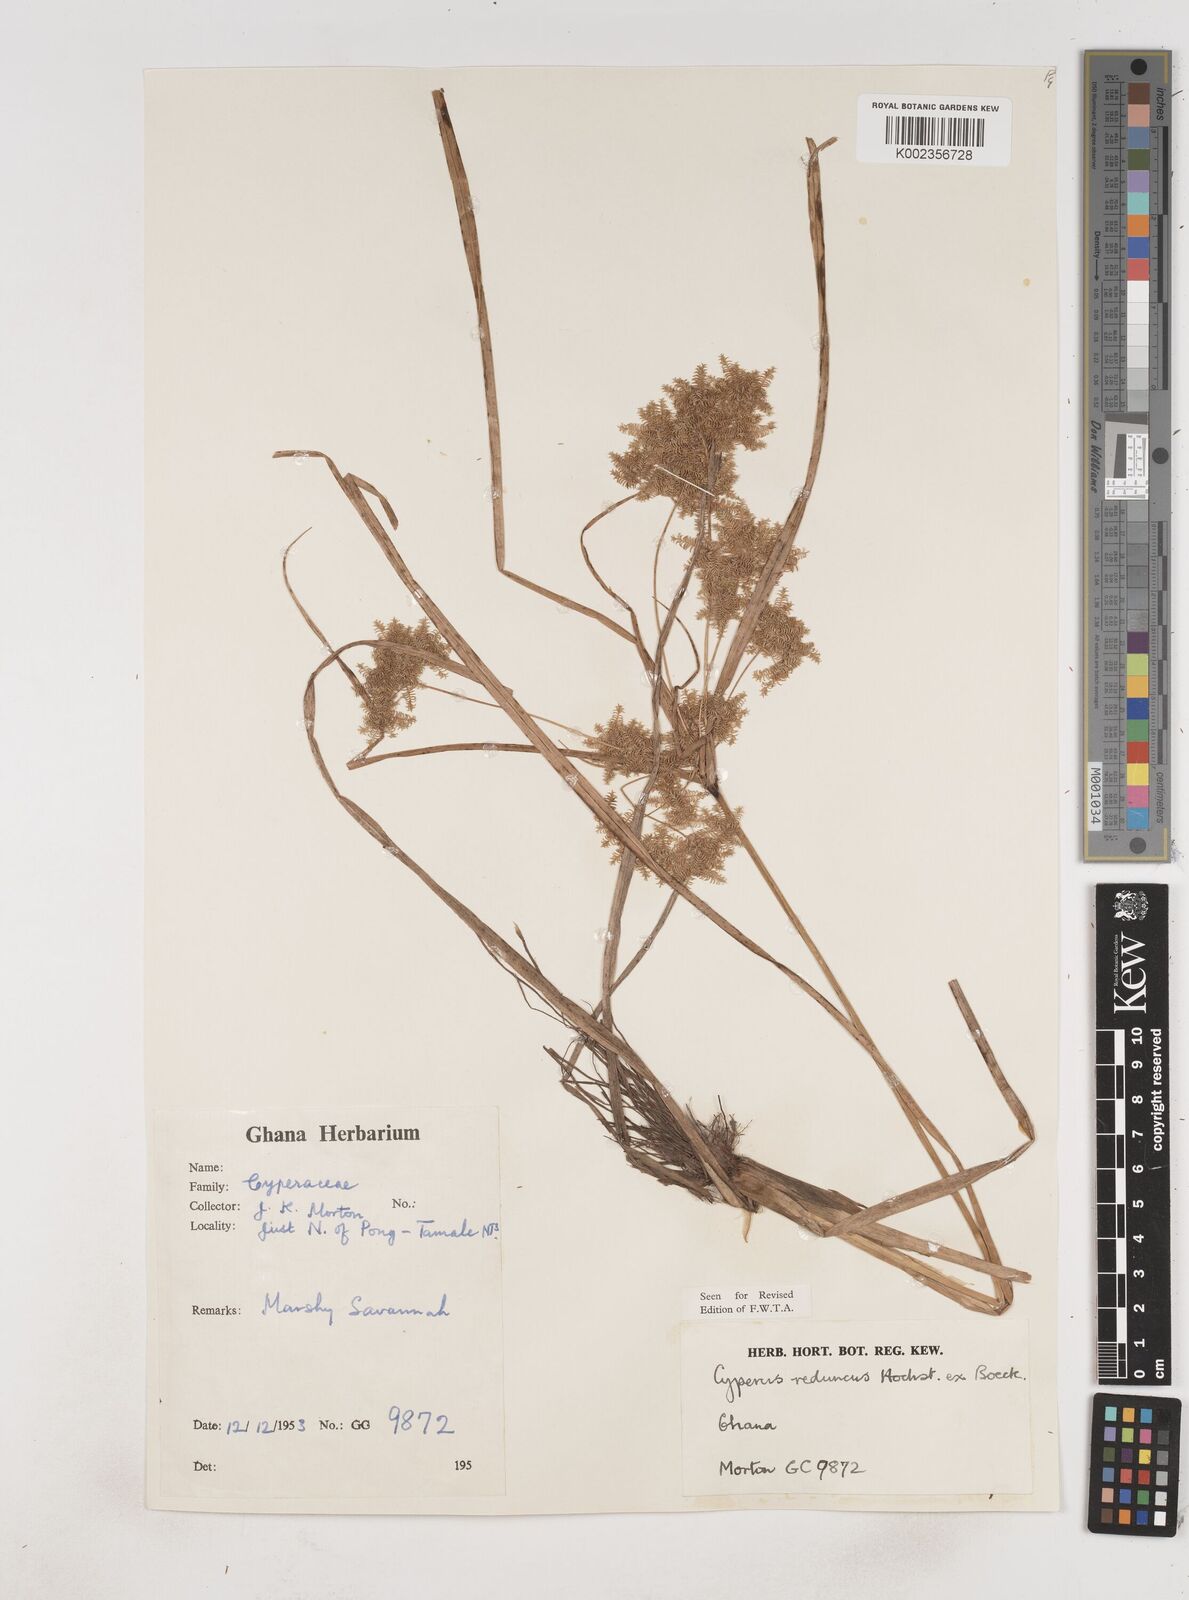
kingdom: Plantae
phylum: Tracheophyta
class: Liliopsida
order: Poales
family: Cyperaceae
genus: Cyperus
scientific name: Cyperus reduncus
